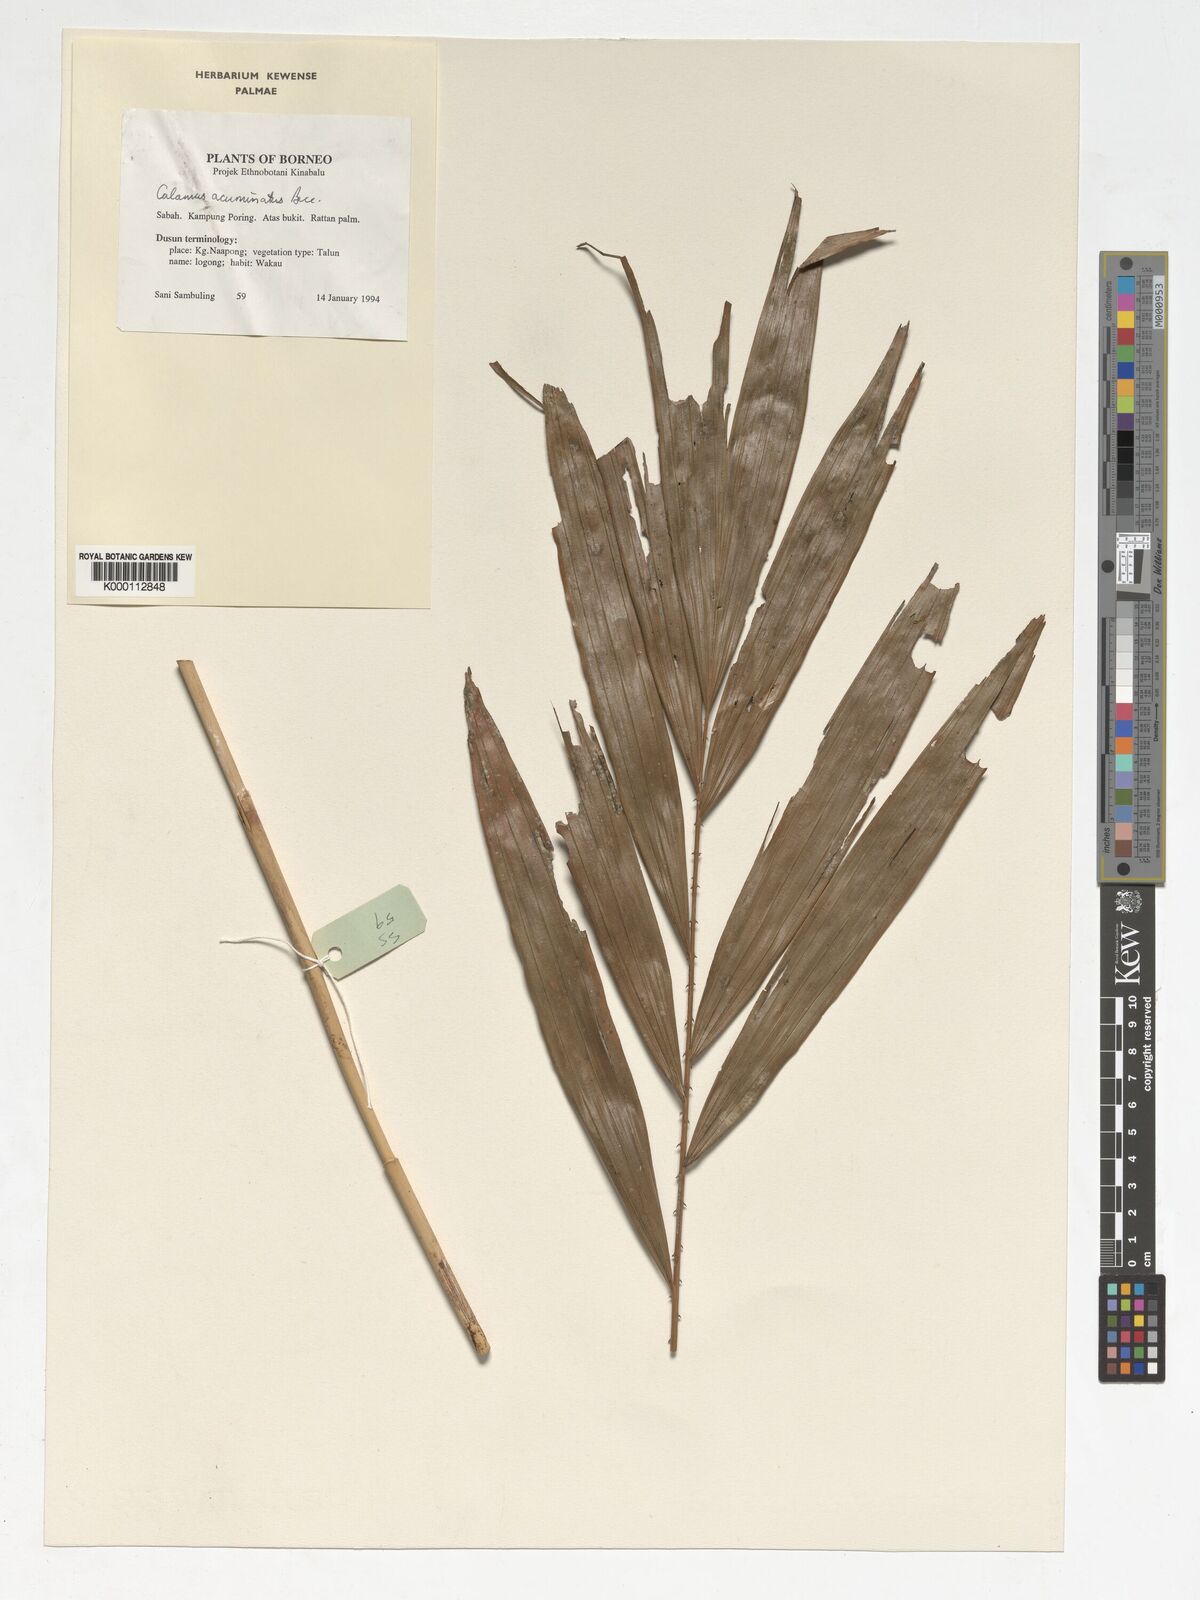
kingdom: Plantae
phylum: Tracheophyta
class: Liliopsida
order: Arecales
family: Arecaceae
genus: Calamus
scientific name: Calamus javensis
